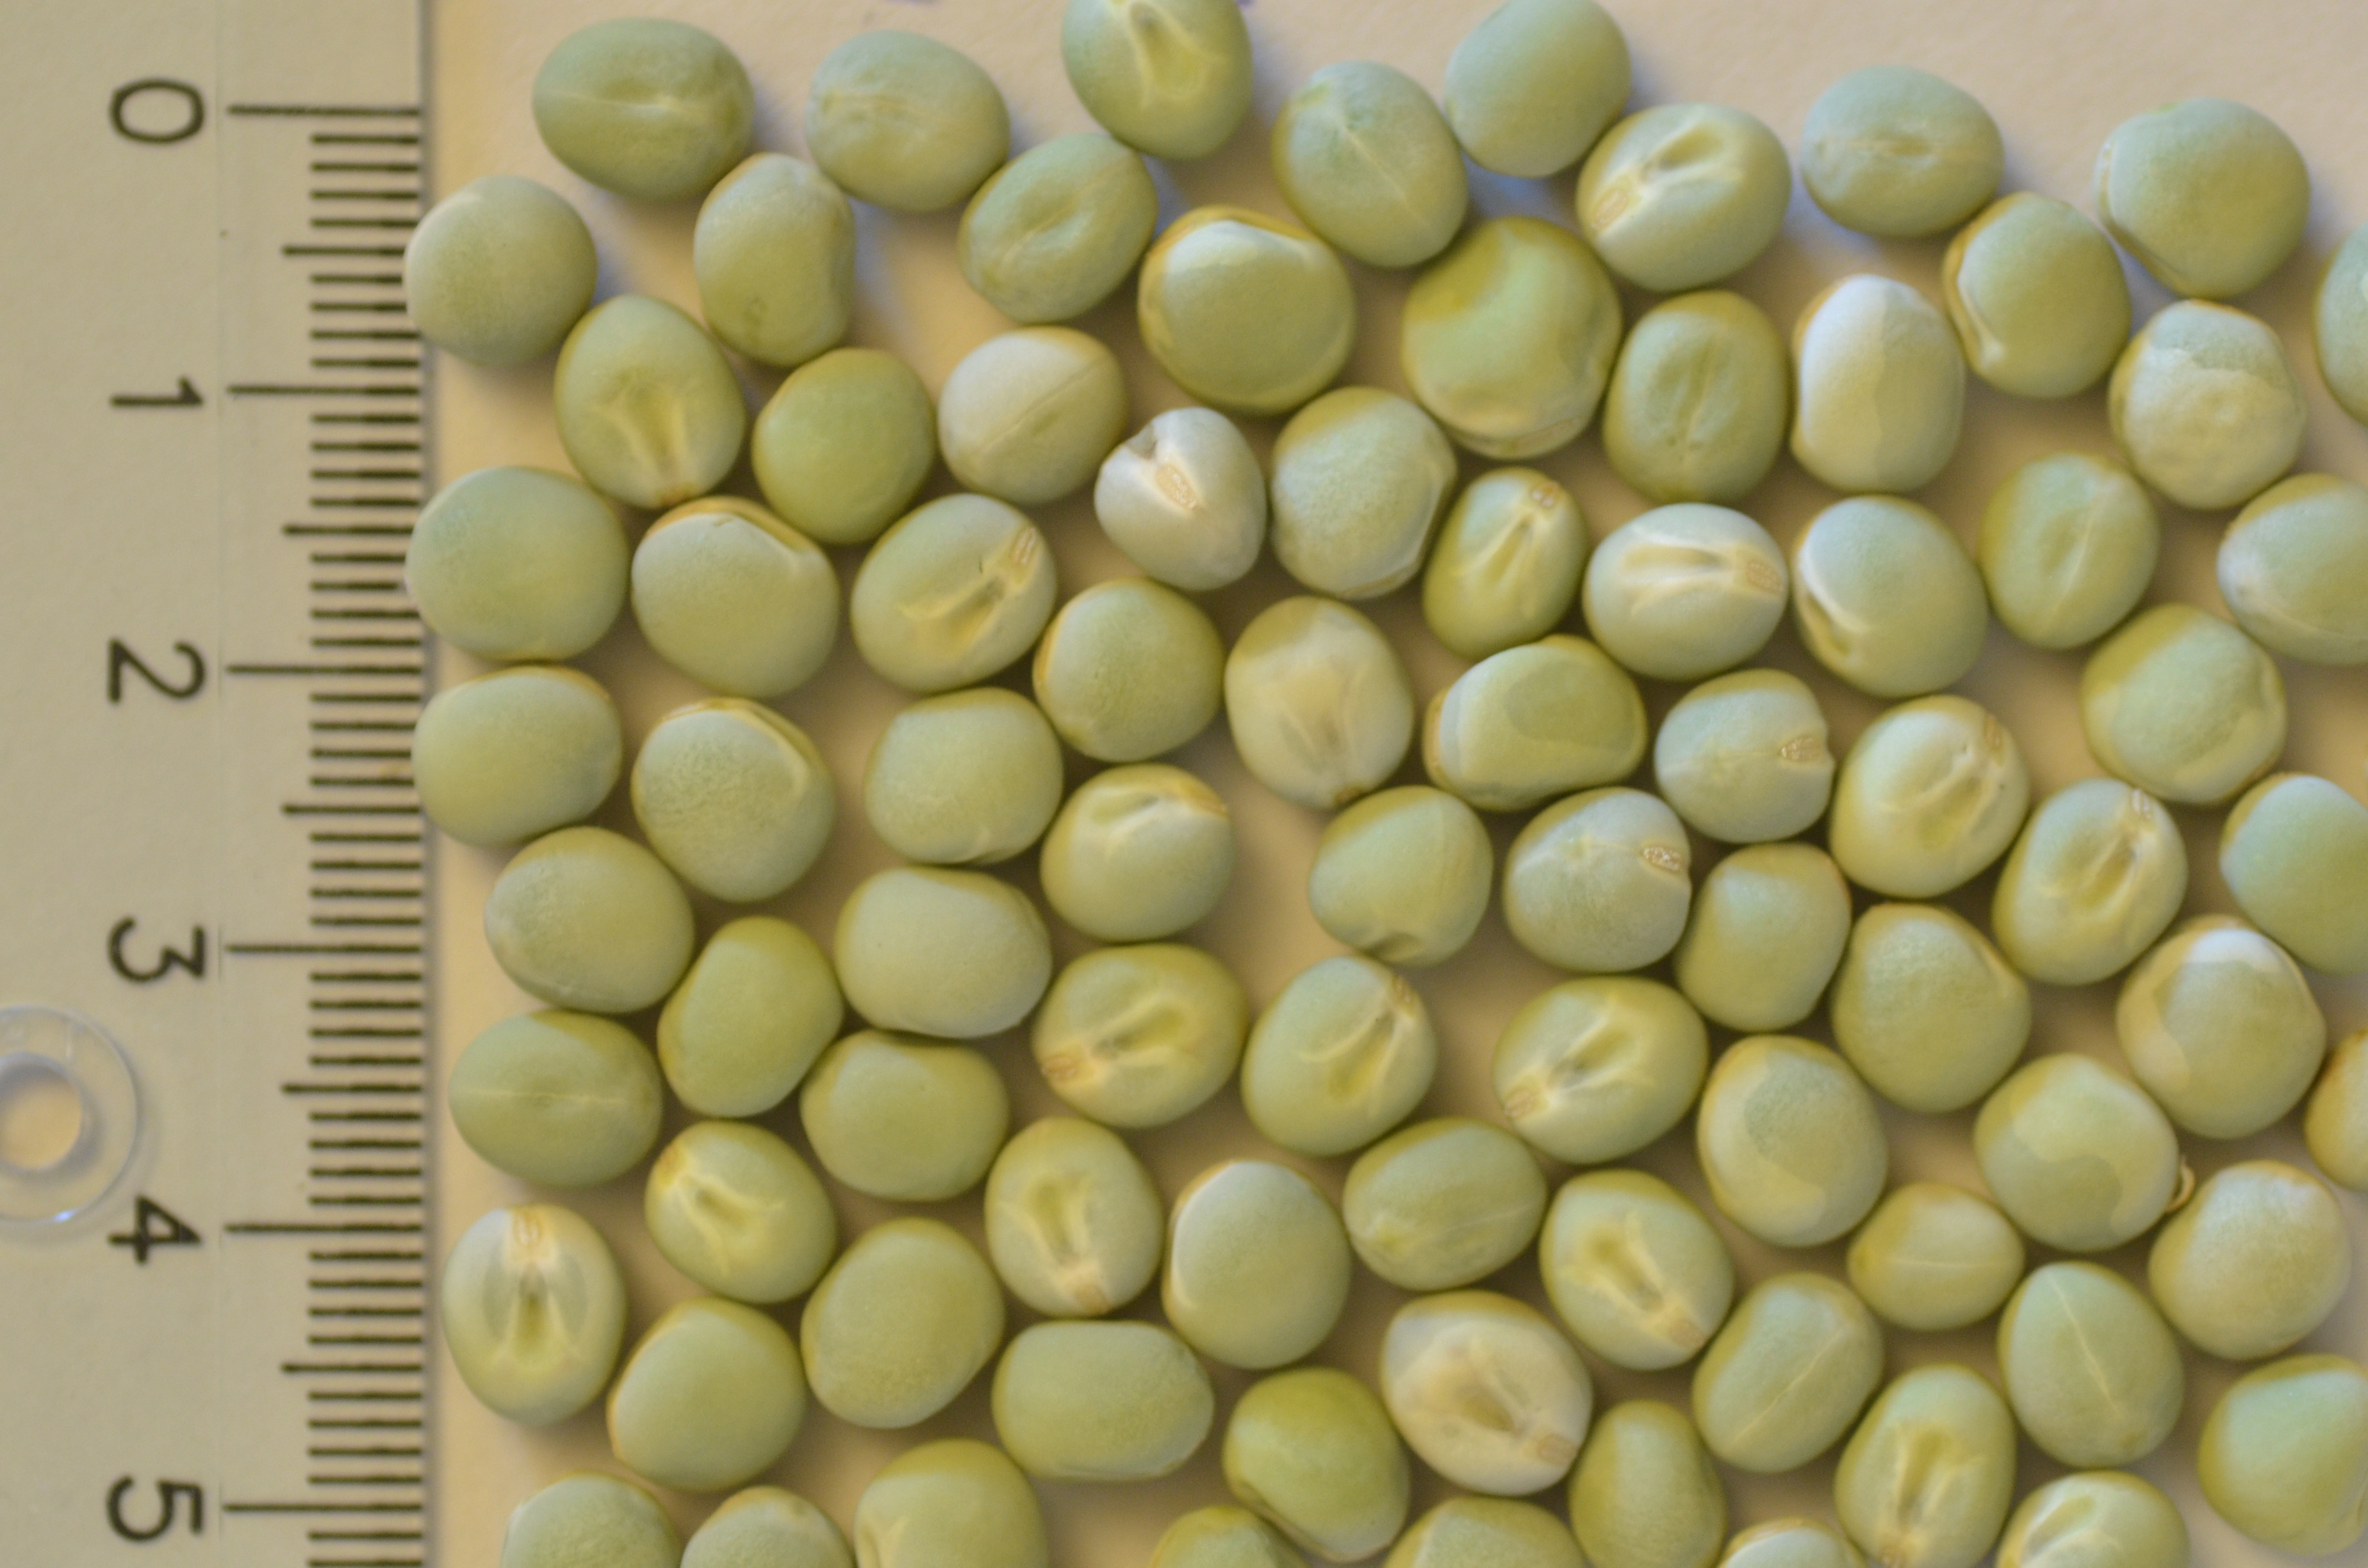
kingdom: Plantae
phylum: Tracheophyta
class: Magnoliopsida
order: Fabales
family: Fabaceae
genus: Lathyrus
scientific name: Lathyrus oleraceus
